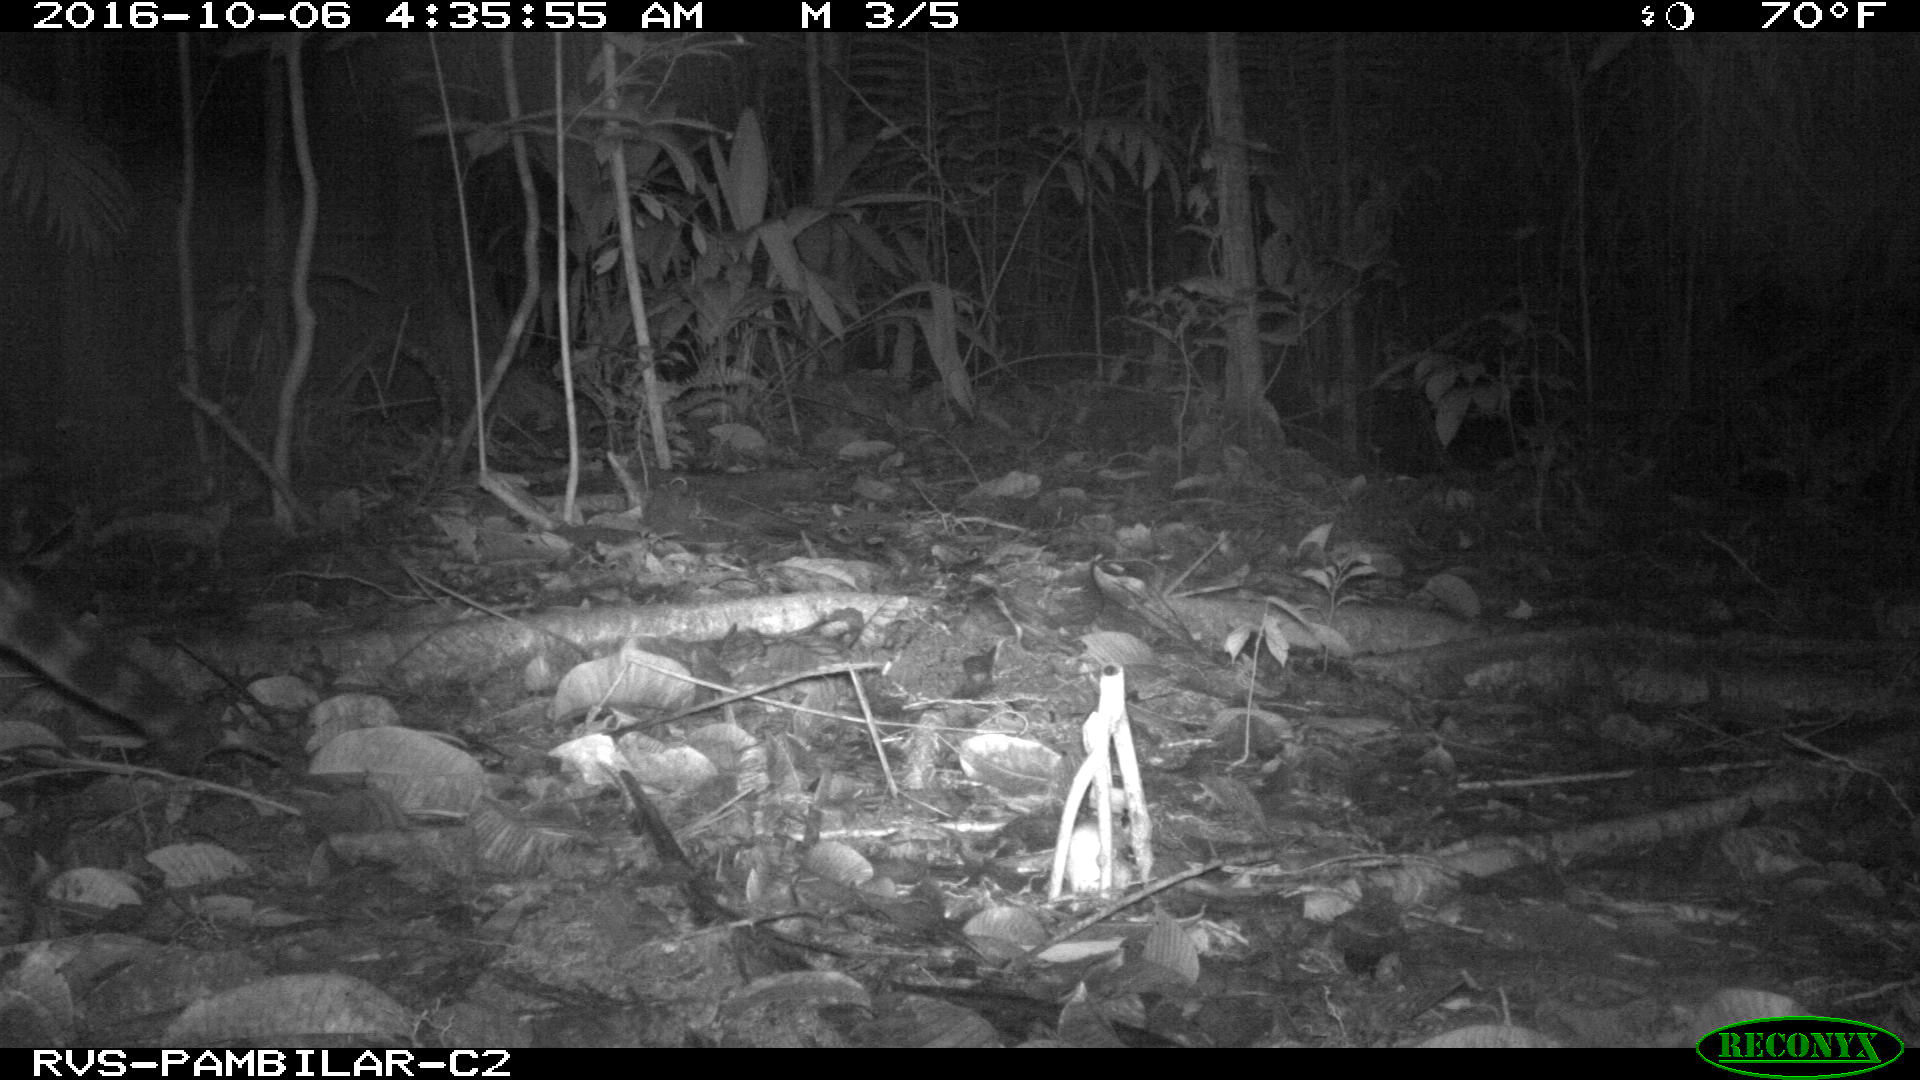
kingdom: Animalia
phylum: Chordata
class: Mammalia
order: Carnivora
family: Felidae
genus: Leopardus
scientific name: Leopardus pardalis
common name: Ocelot
